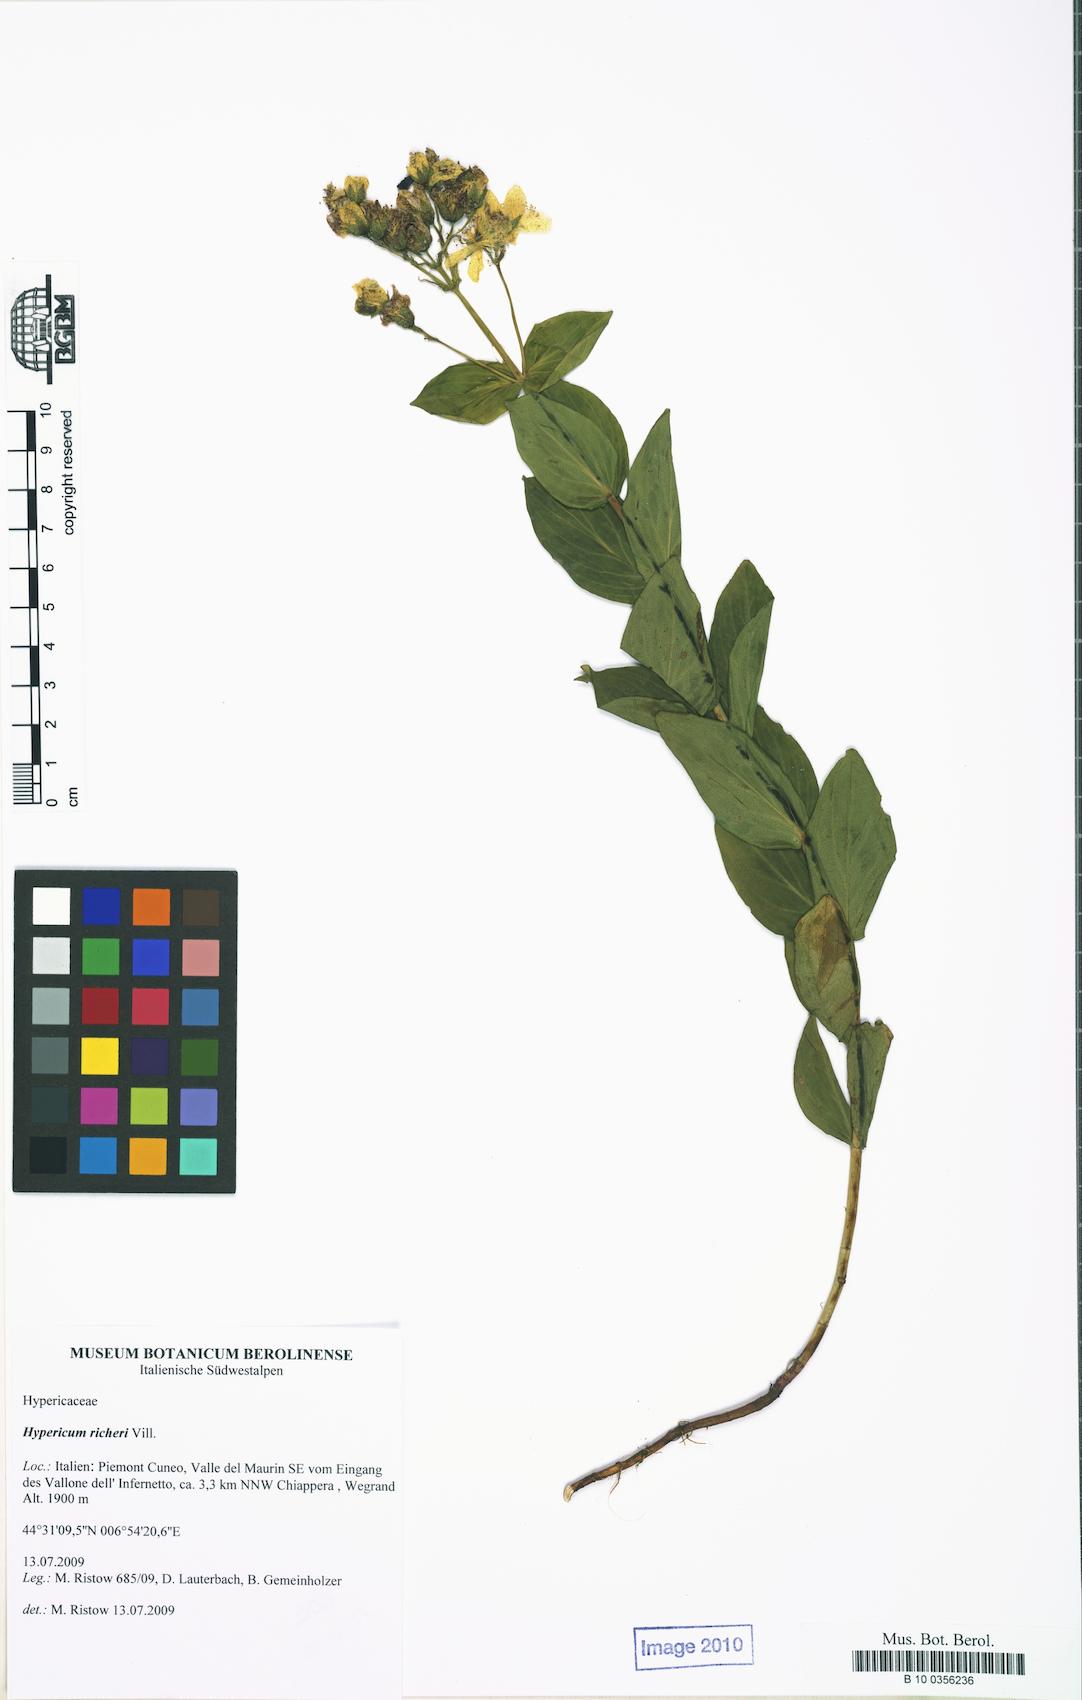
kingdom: Plantae
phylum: Tracheophyta
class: Magnoliopsida
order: Malpighiales
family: Hypericaceae
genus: Hypericum
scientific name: Hypericum richeri
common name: Alpine st john's-wort
